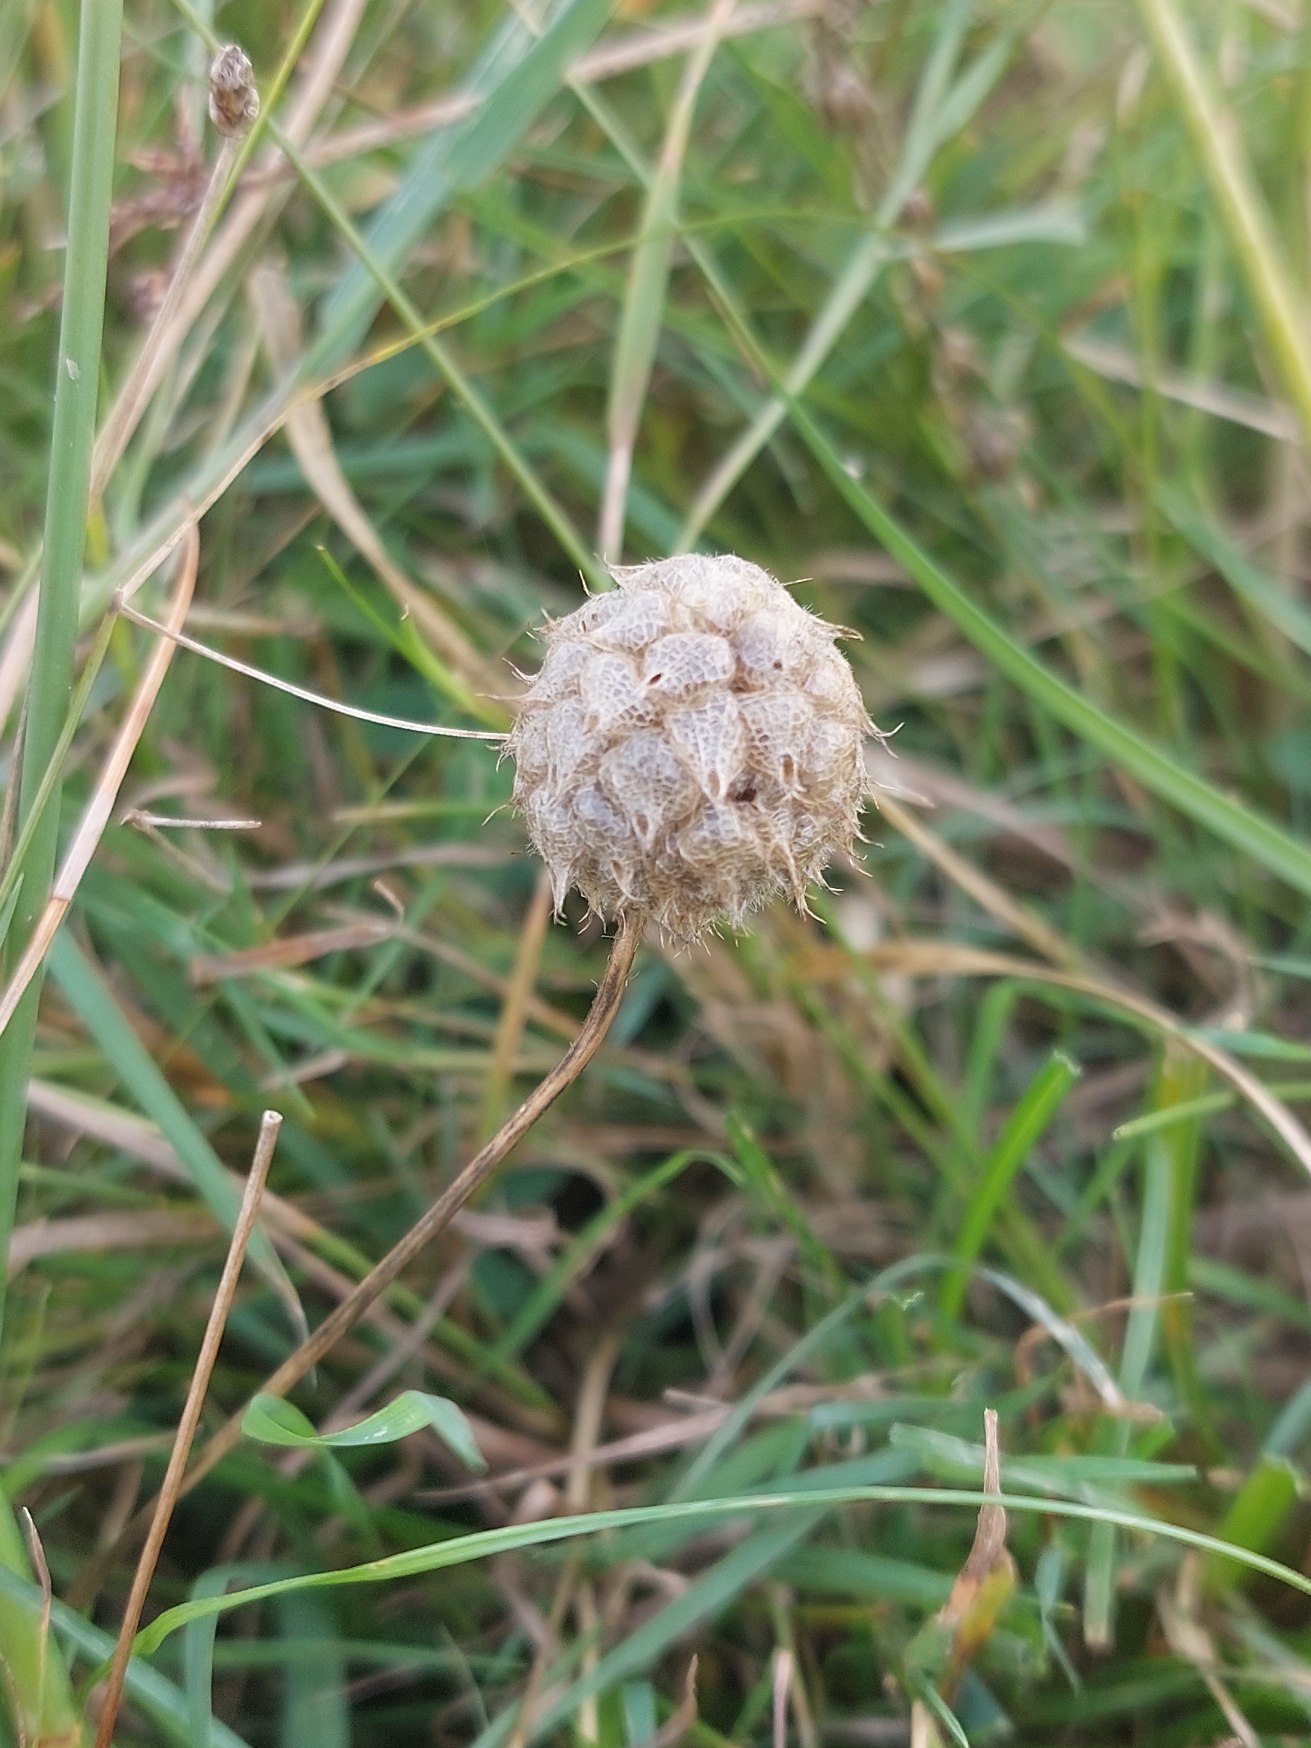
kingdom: Plantae
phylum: Tracheophyta
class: Magnoliopsida
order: Fabales
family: Fabaceae
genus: Trifolium
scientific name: Trifolium fragiferum
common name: Jordbær-kløver
